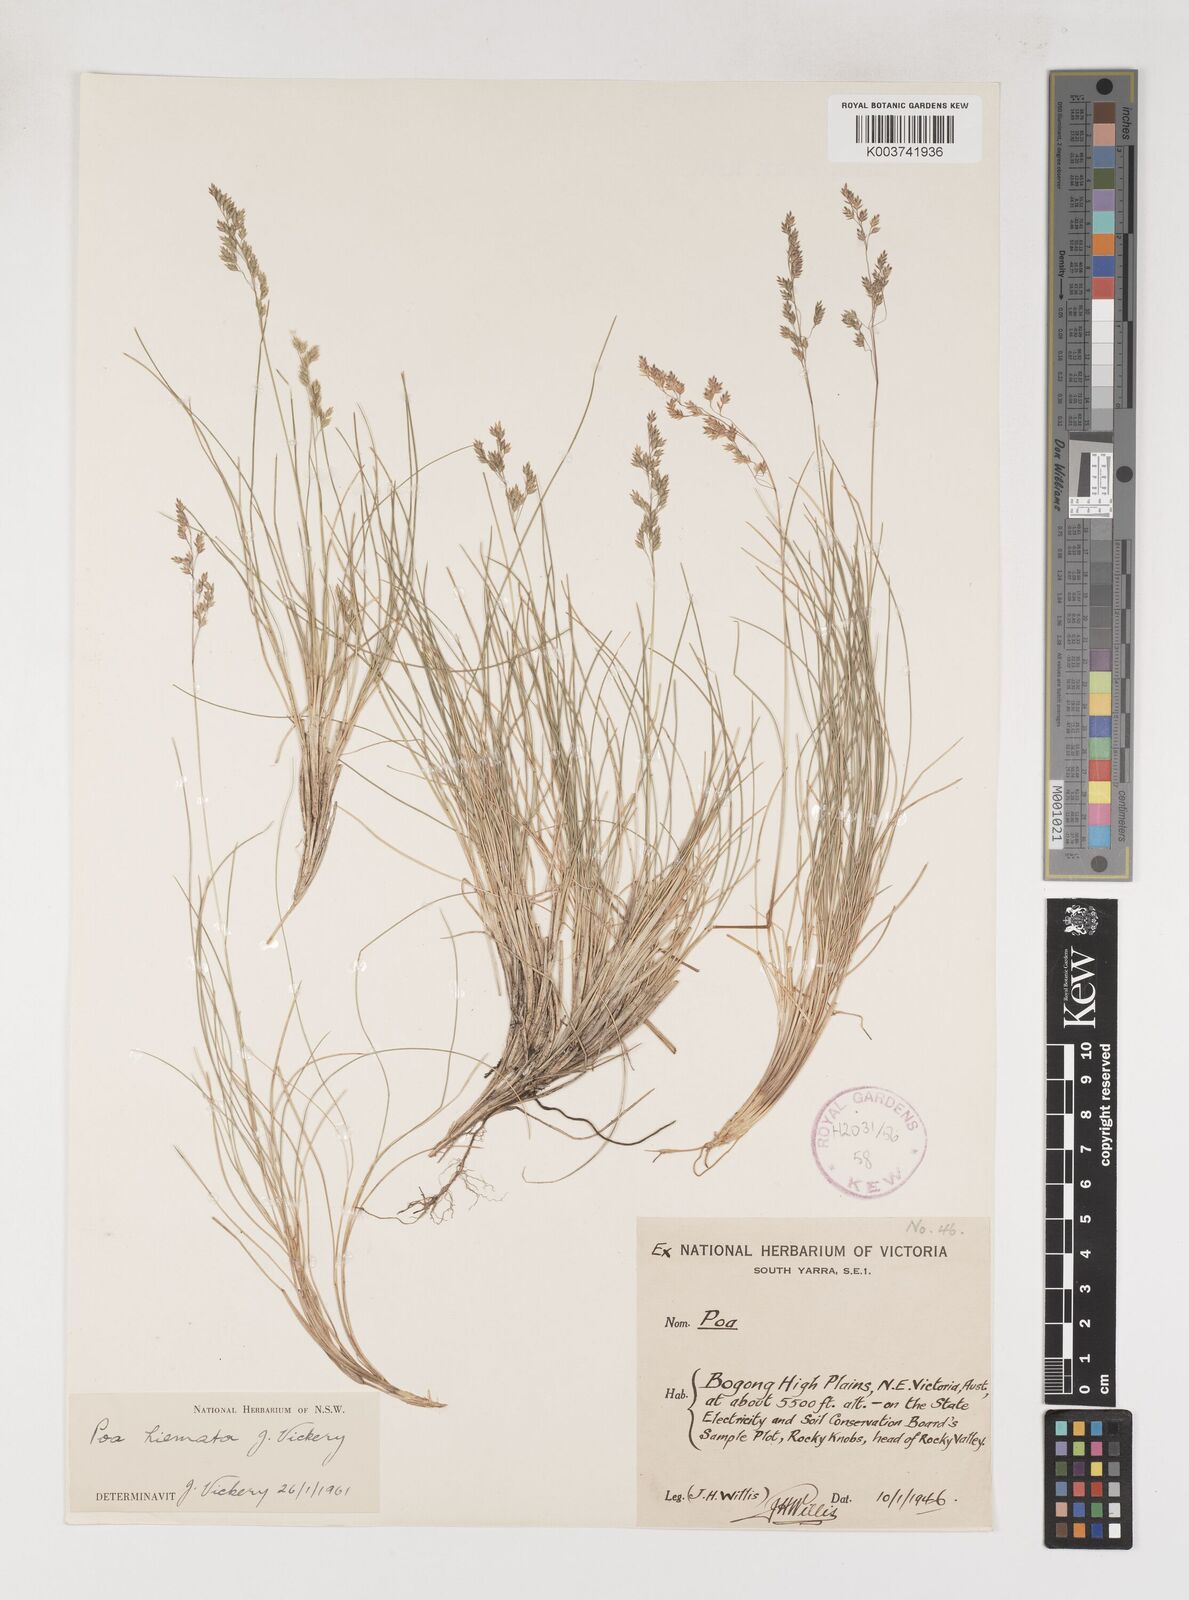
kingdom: Plantae
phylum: Tracheophyta
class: Liliopsida
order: Poales
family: Poaceae
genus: Poa
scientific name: Poa hiemata
